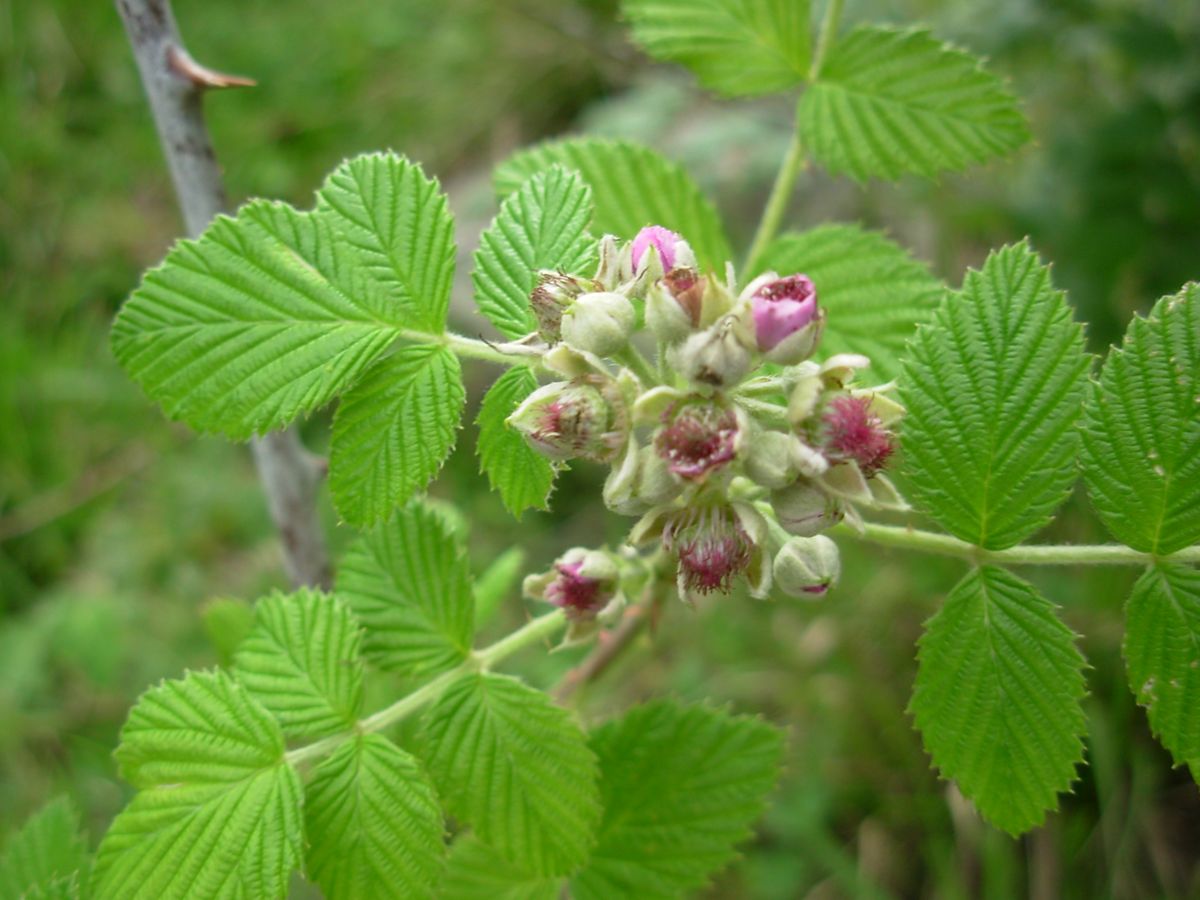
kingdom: Plantae
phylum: Tracheophyta
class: Magnoliopsida
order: Rosales
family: Rosaceae
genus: Rubus
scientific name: Rubus niveus
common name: Snowpeaks raspberry
